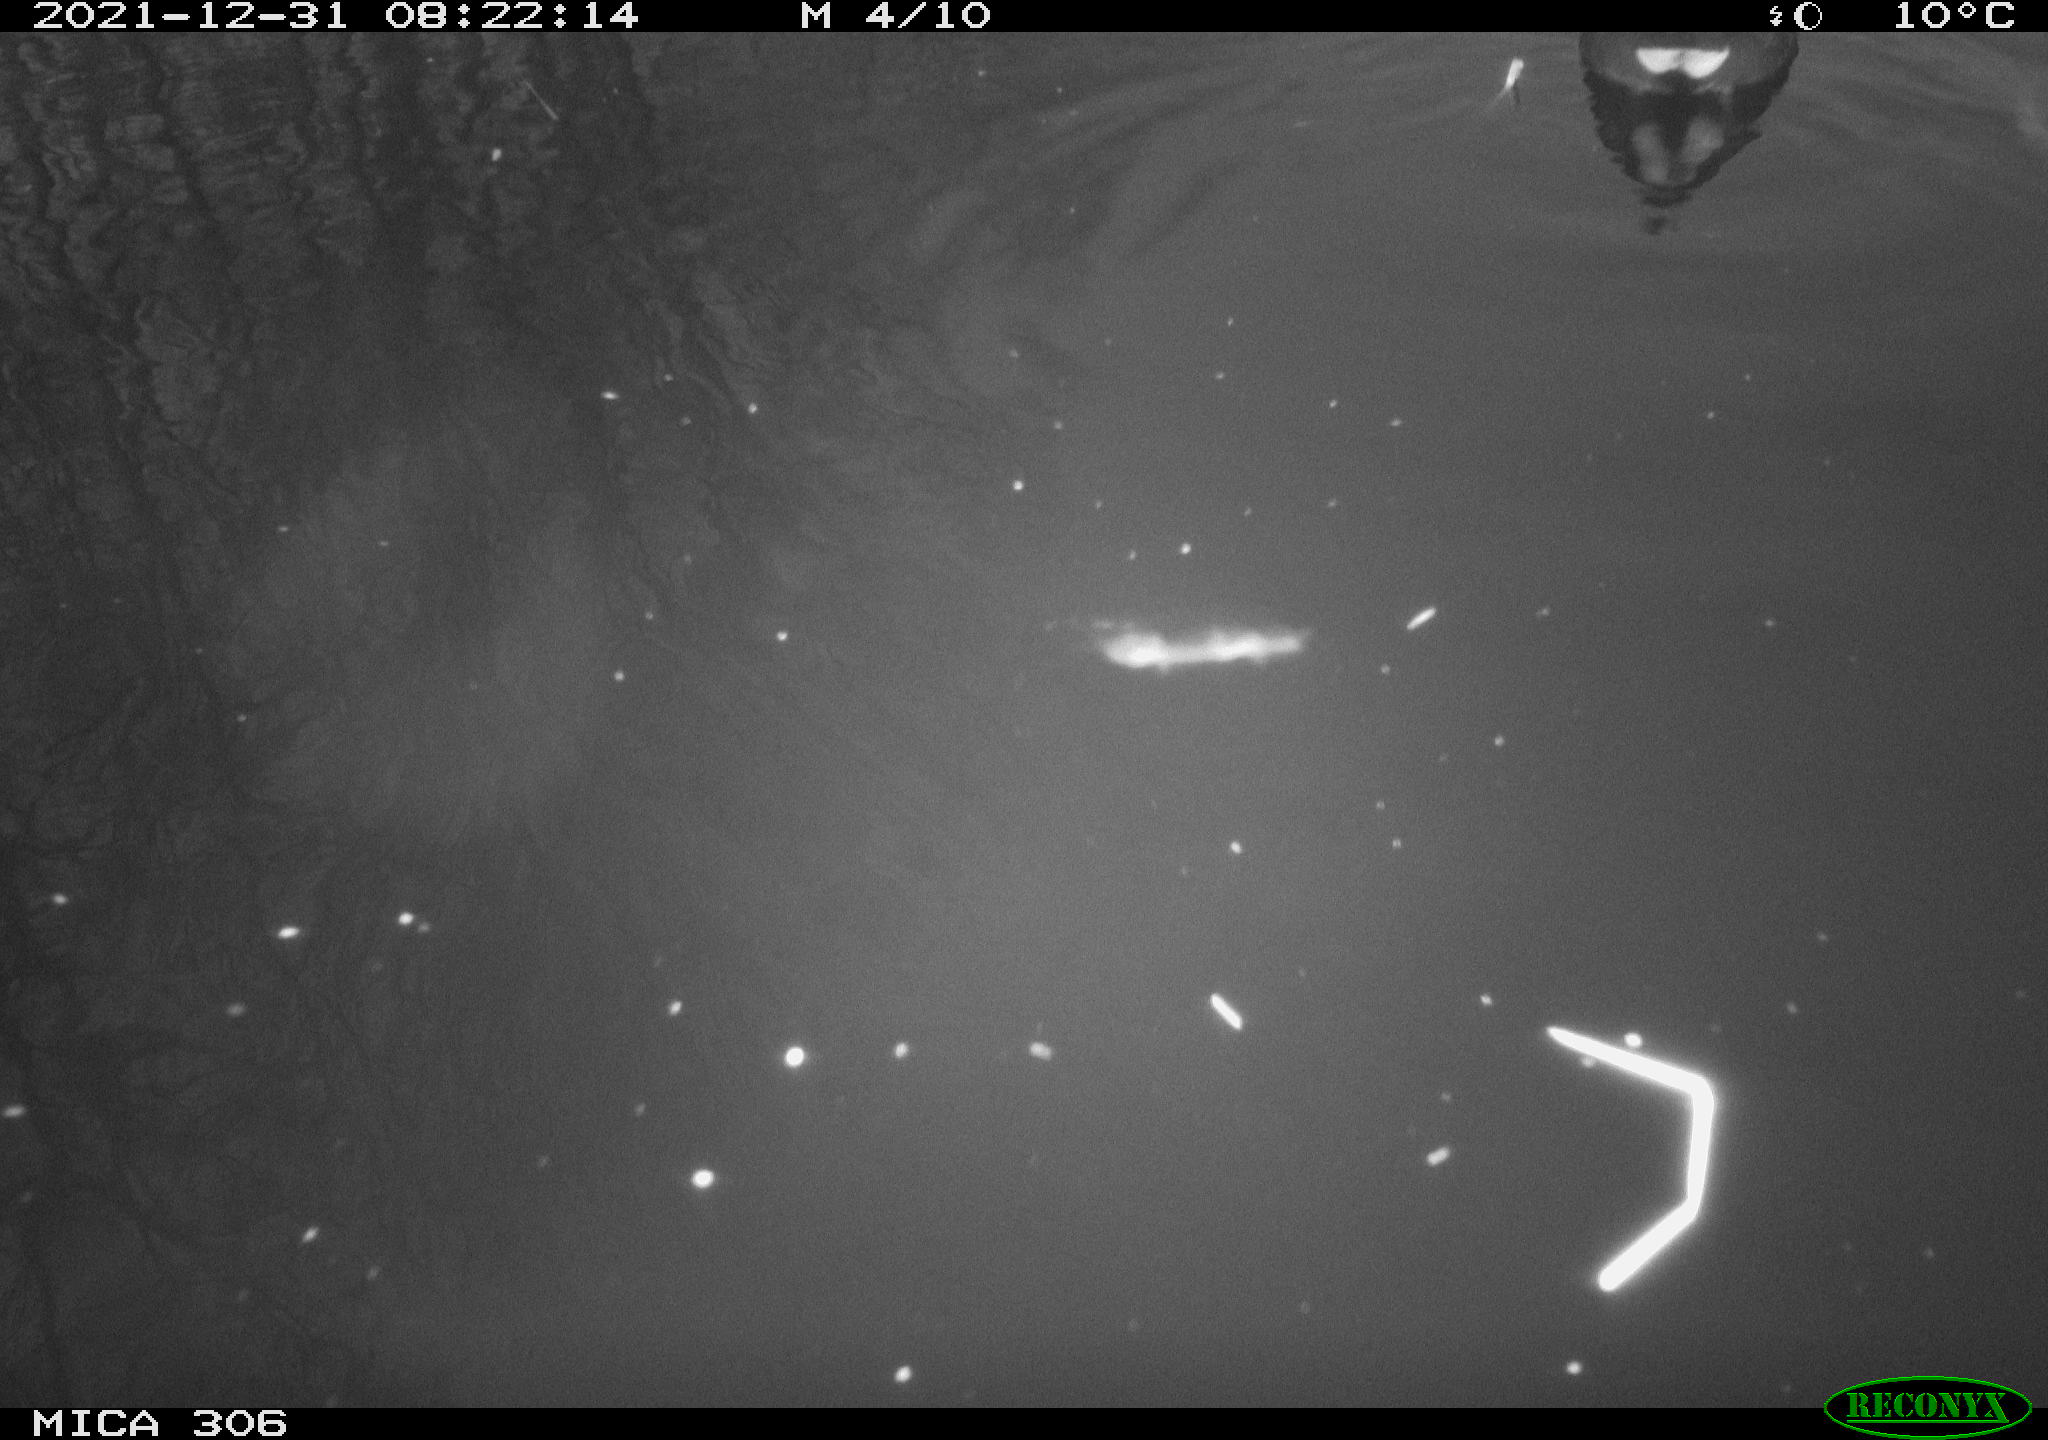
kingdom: Animalia
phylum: Chordata
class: Aves
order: Gruiformes
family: Rallidae
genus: Gallinula
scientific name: Gallinula chloropus
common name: Common moorhen
